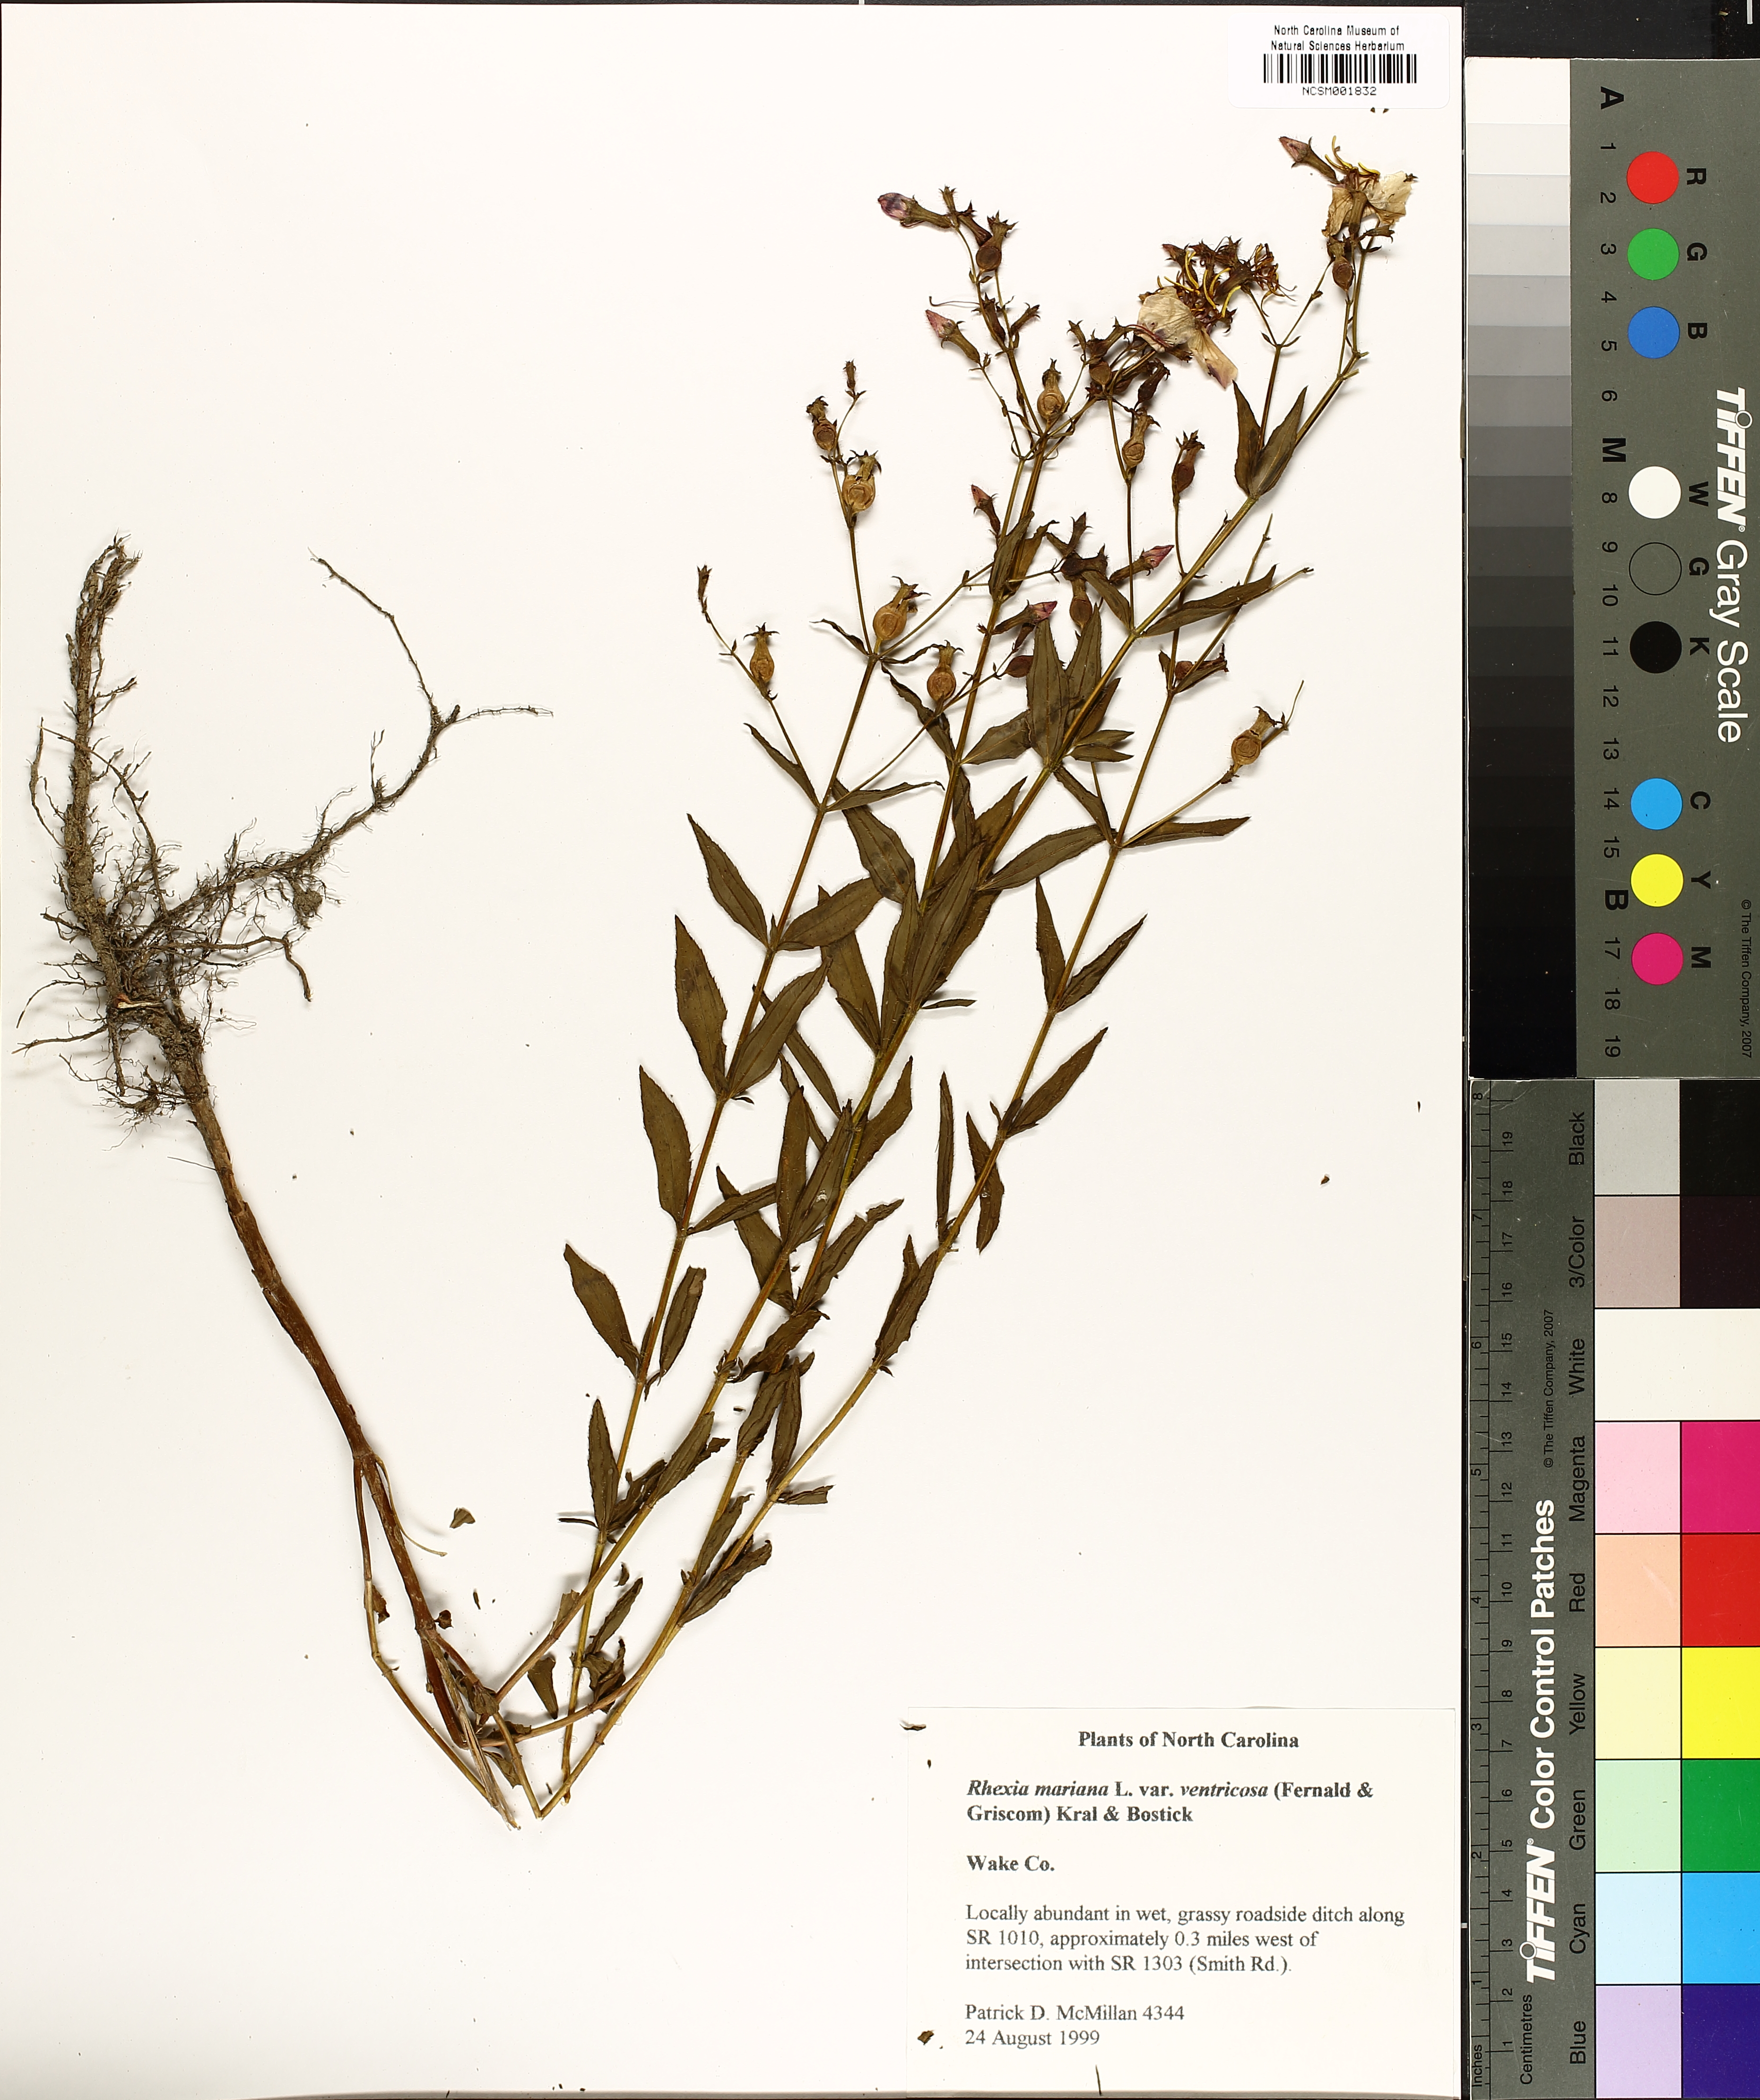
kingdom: Plantae
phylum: Tracheophyta
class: Magnoliopsida
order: Myrtales
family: Melastomataceae
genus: Rhexia
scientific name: Rhexia ventricosa
